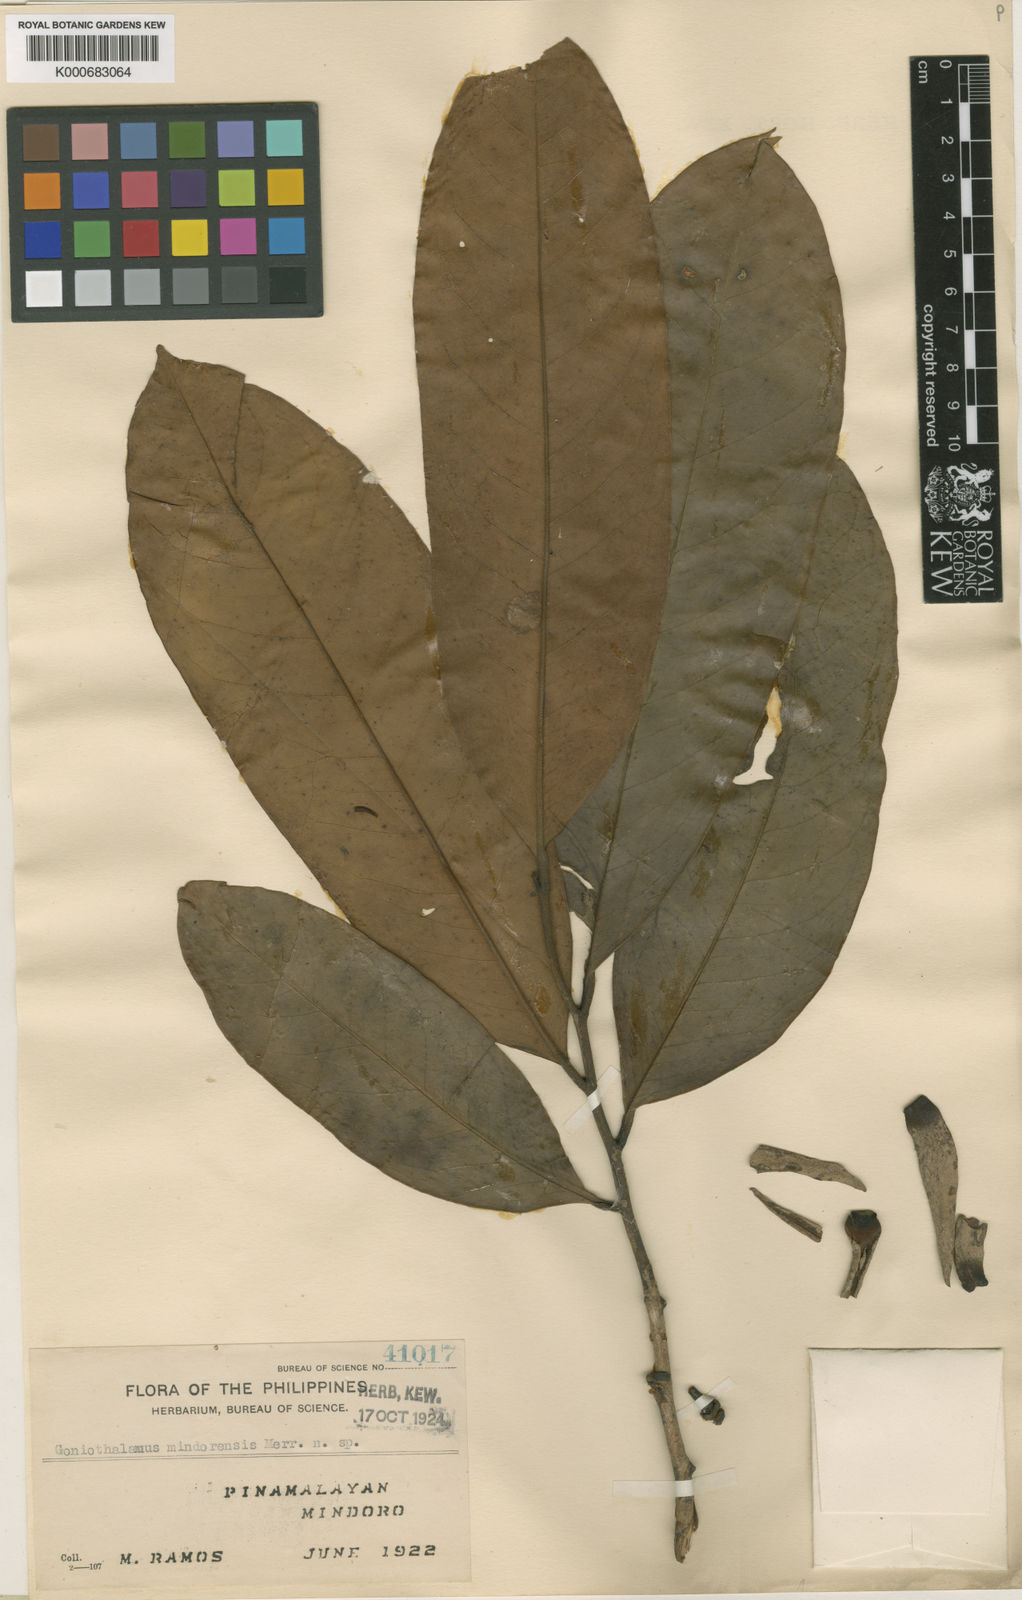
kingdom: Plantae
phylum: Tracheophyta
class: Magnoliopsida
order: Magnoliales
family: Annonaceae
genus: Goniothalamus
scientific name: Goniothalamus mindorensis
